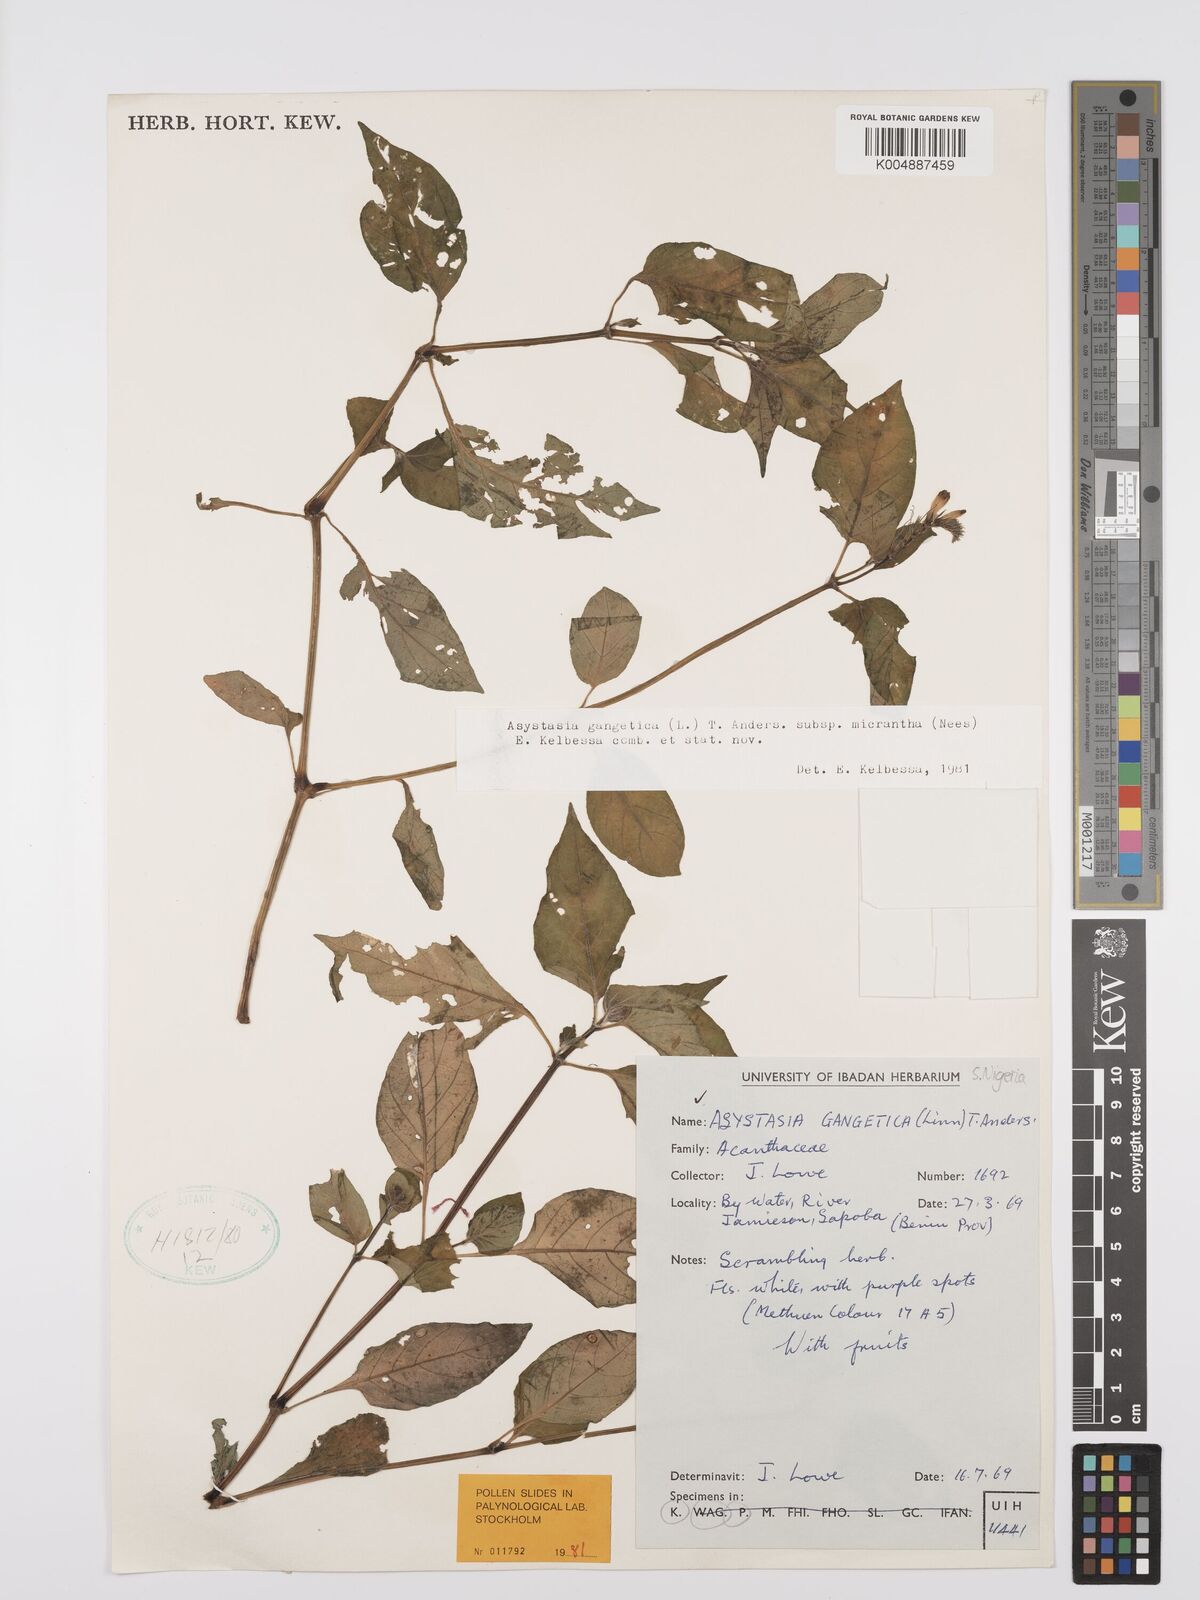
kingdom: Plantae
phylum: Tracheophyta
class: Magnoliopsida
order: Lamiales
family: Acanthaceae
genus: Asystasia
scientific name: Asystasia intrusa
